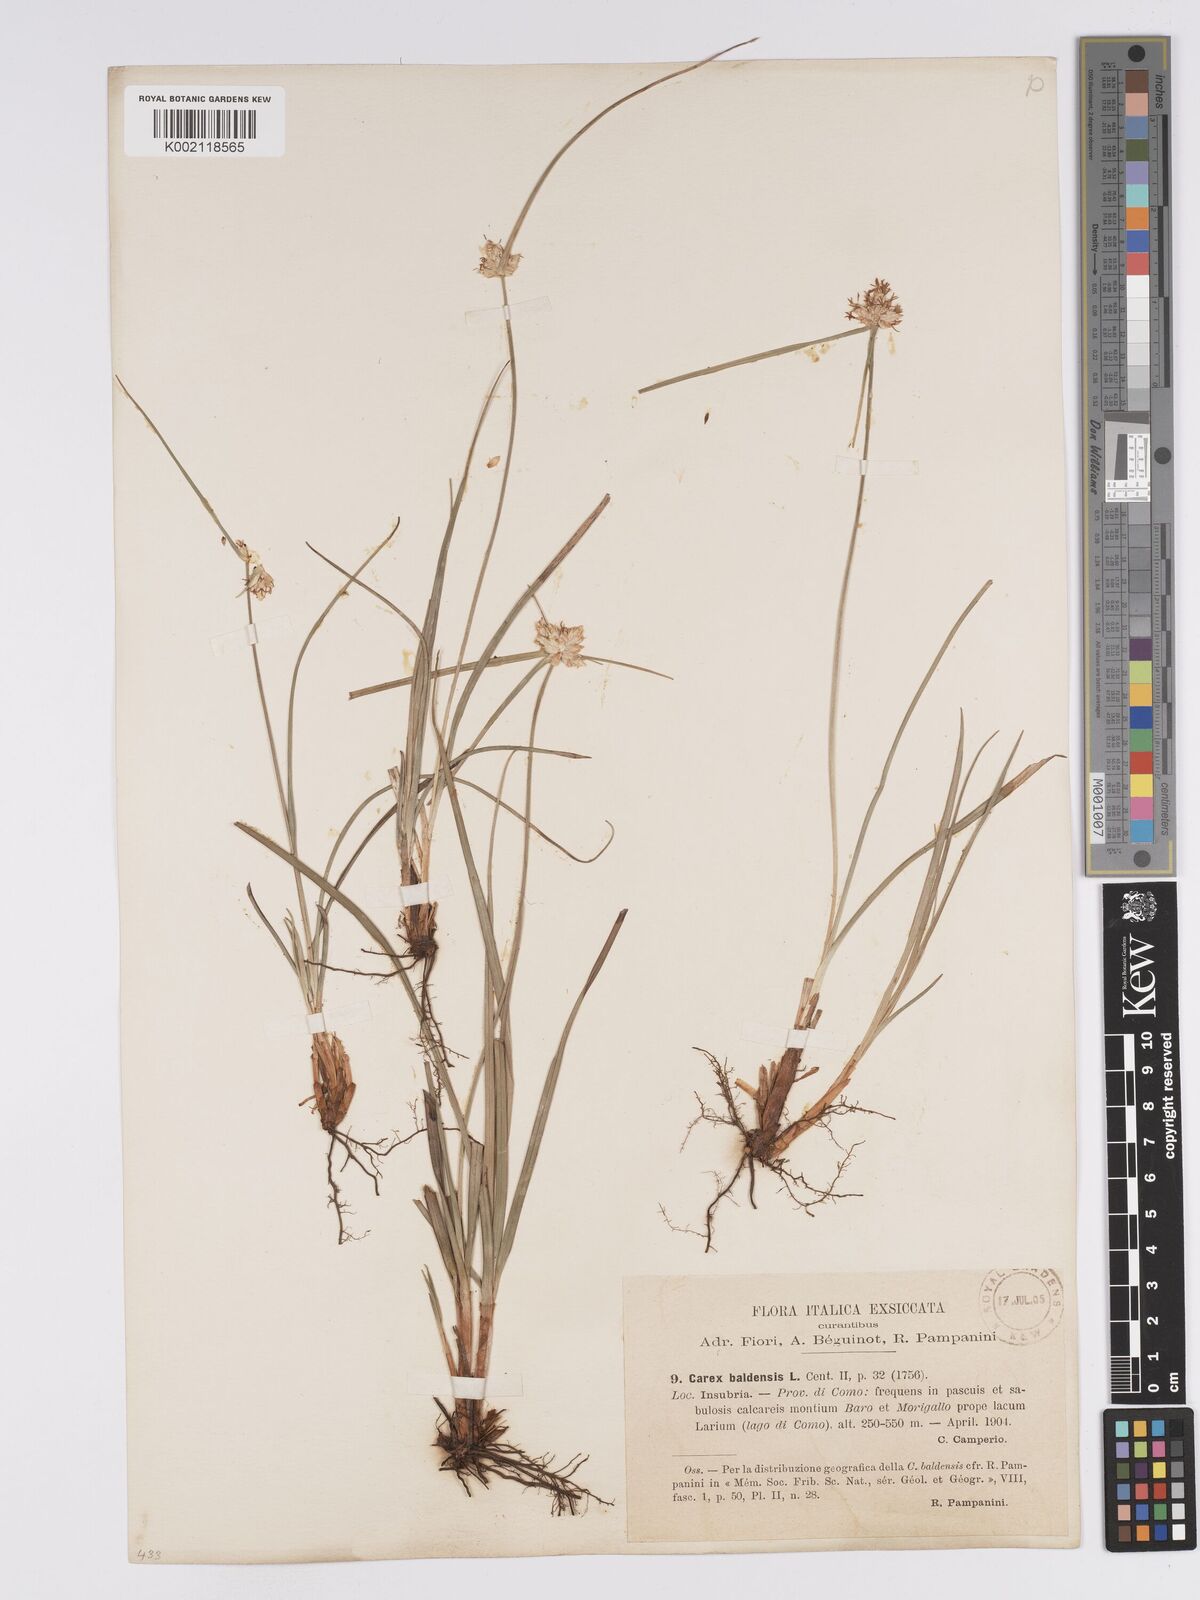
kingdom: Plantae
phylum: Tracheophyta
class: Liliopsida
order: Poales
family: Cyperaceae
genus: Carex
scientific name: Carex baldensis
